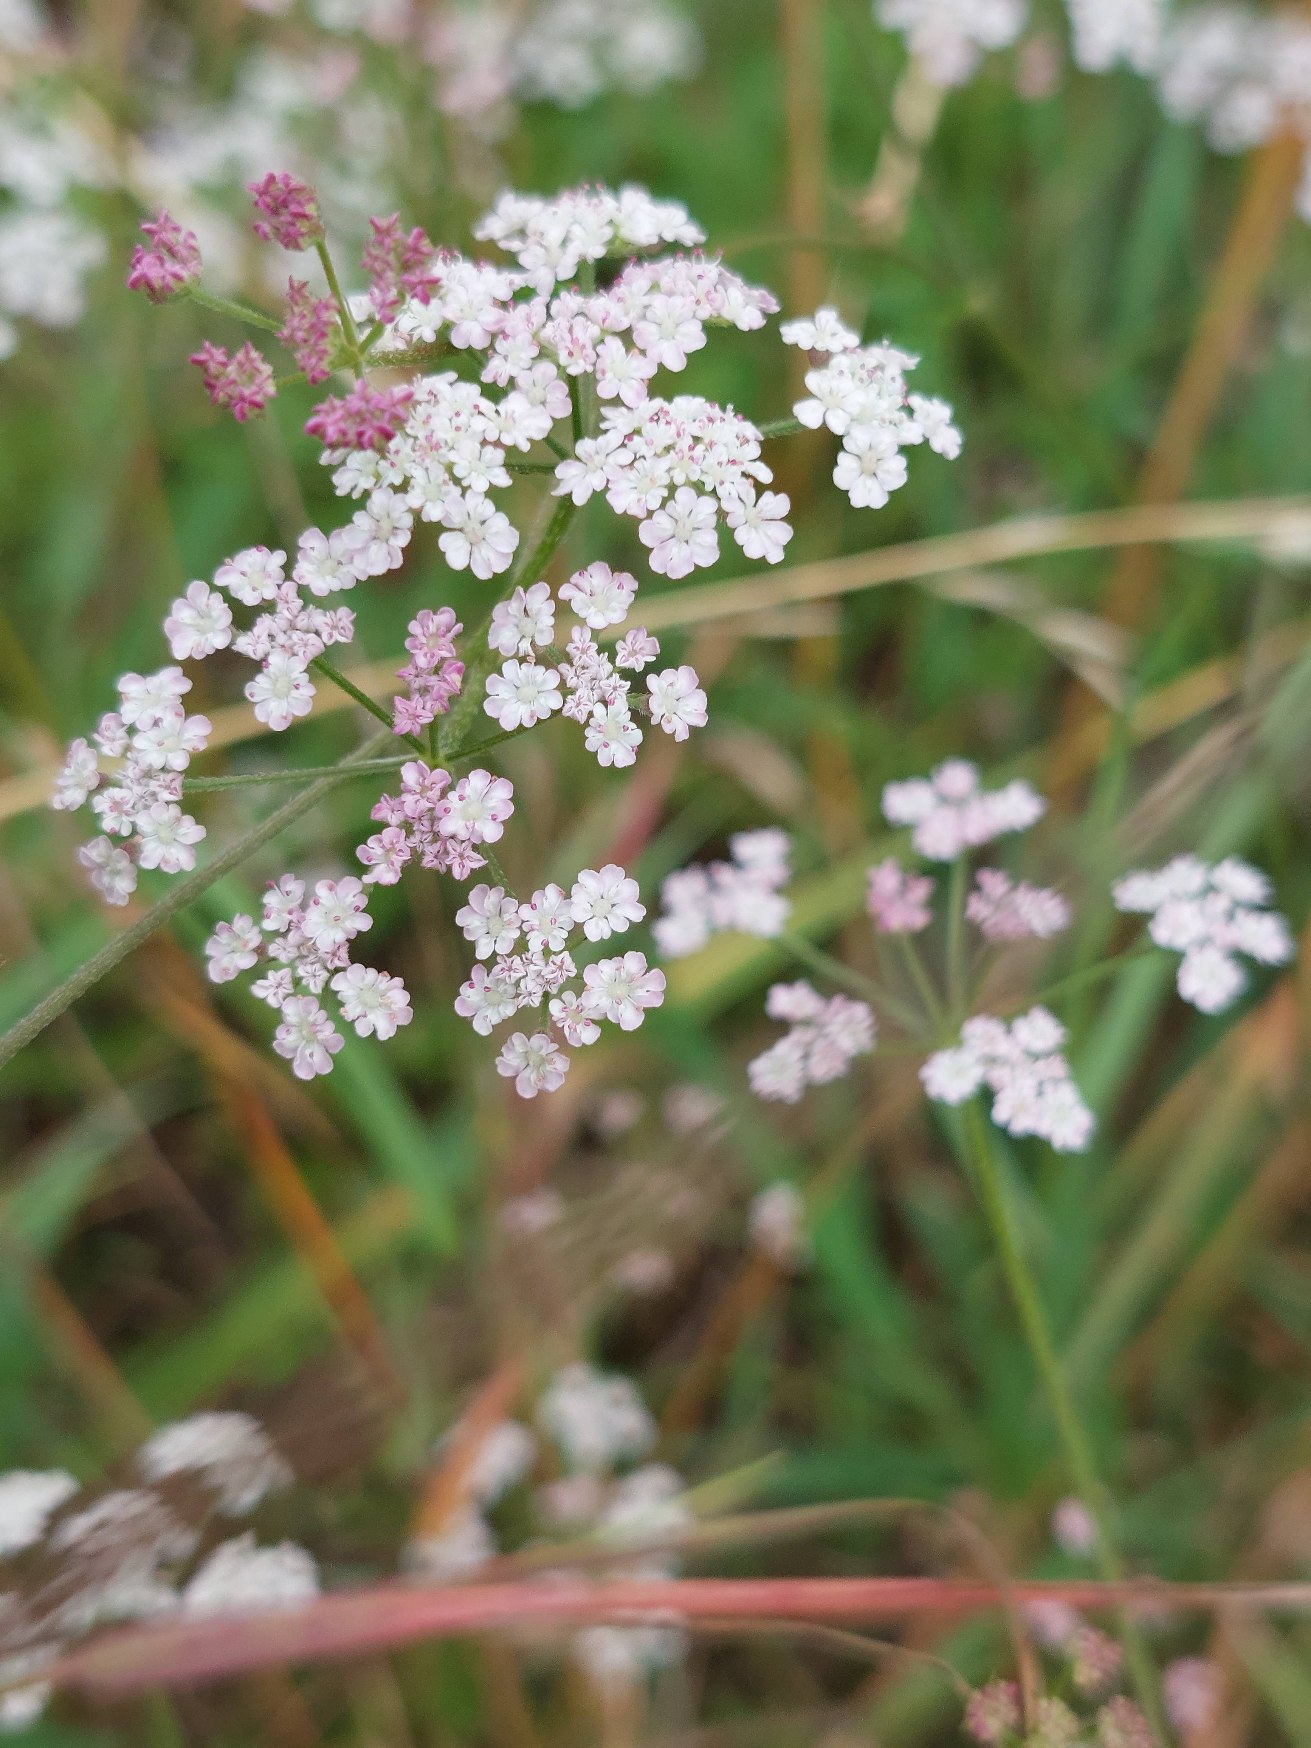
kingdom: Plantae
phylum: Tracheophyta
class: Magnoliopsida
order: Apiales
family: Apiaceae
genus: Torilis
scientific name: Torilis japonica
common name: Hvas randfrø
